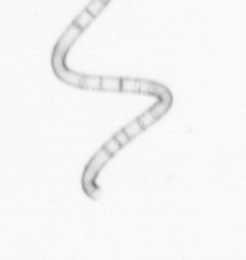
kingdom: Chromista
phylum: Ochrophyta
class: Bacillariophyceae
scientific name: Bacillariophyceae
